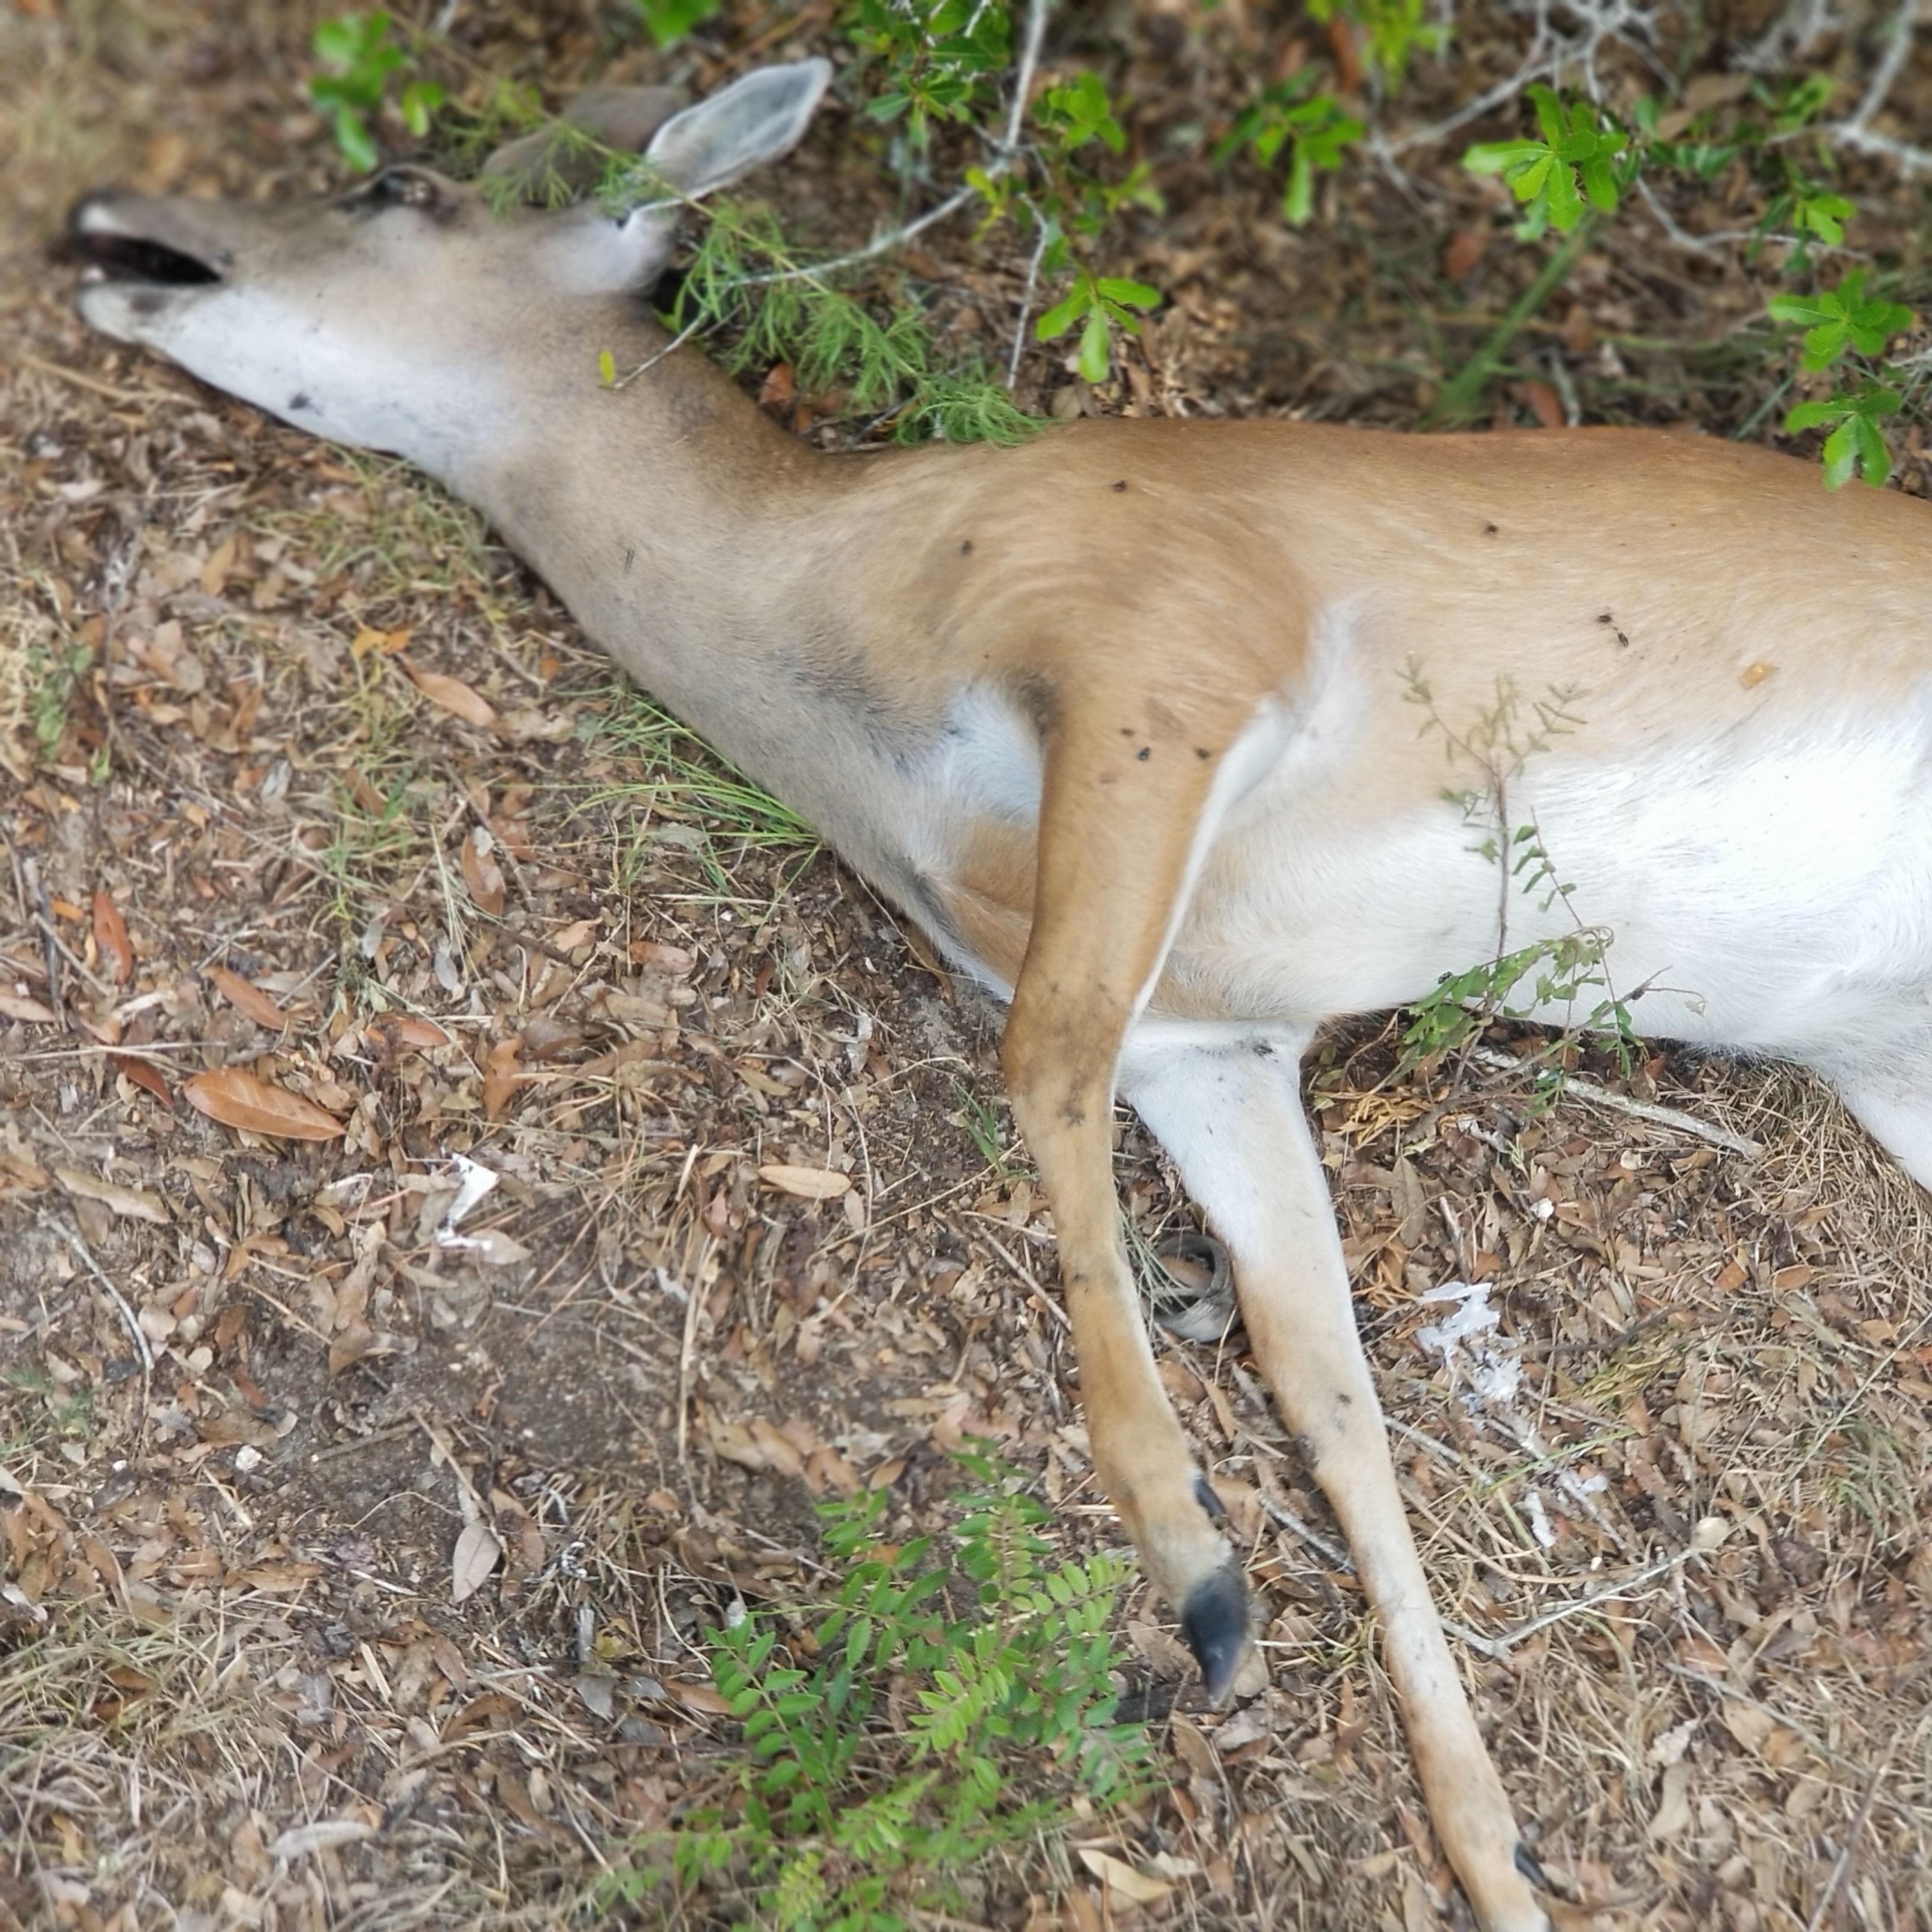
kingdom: Animalia
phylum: Chordata
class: Mammalia
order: Artiodactyla
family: Cervidae
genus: Odocoileus
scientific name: Odocoileus virginianus
